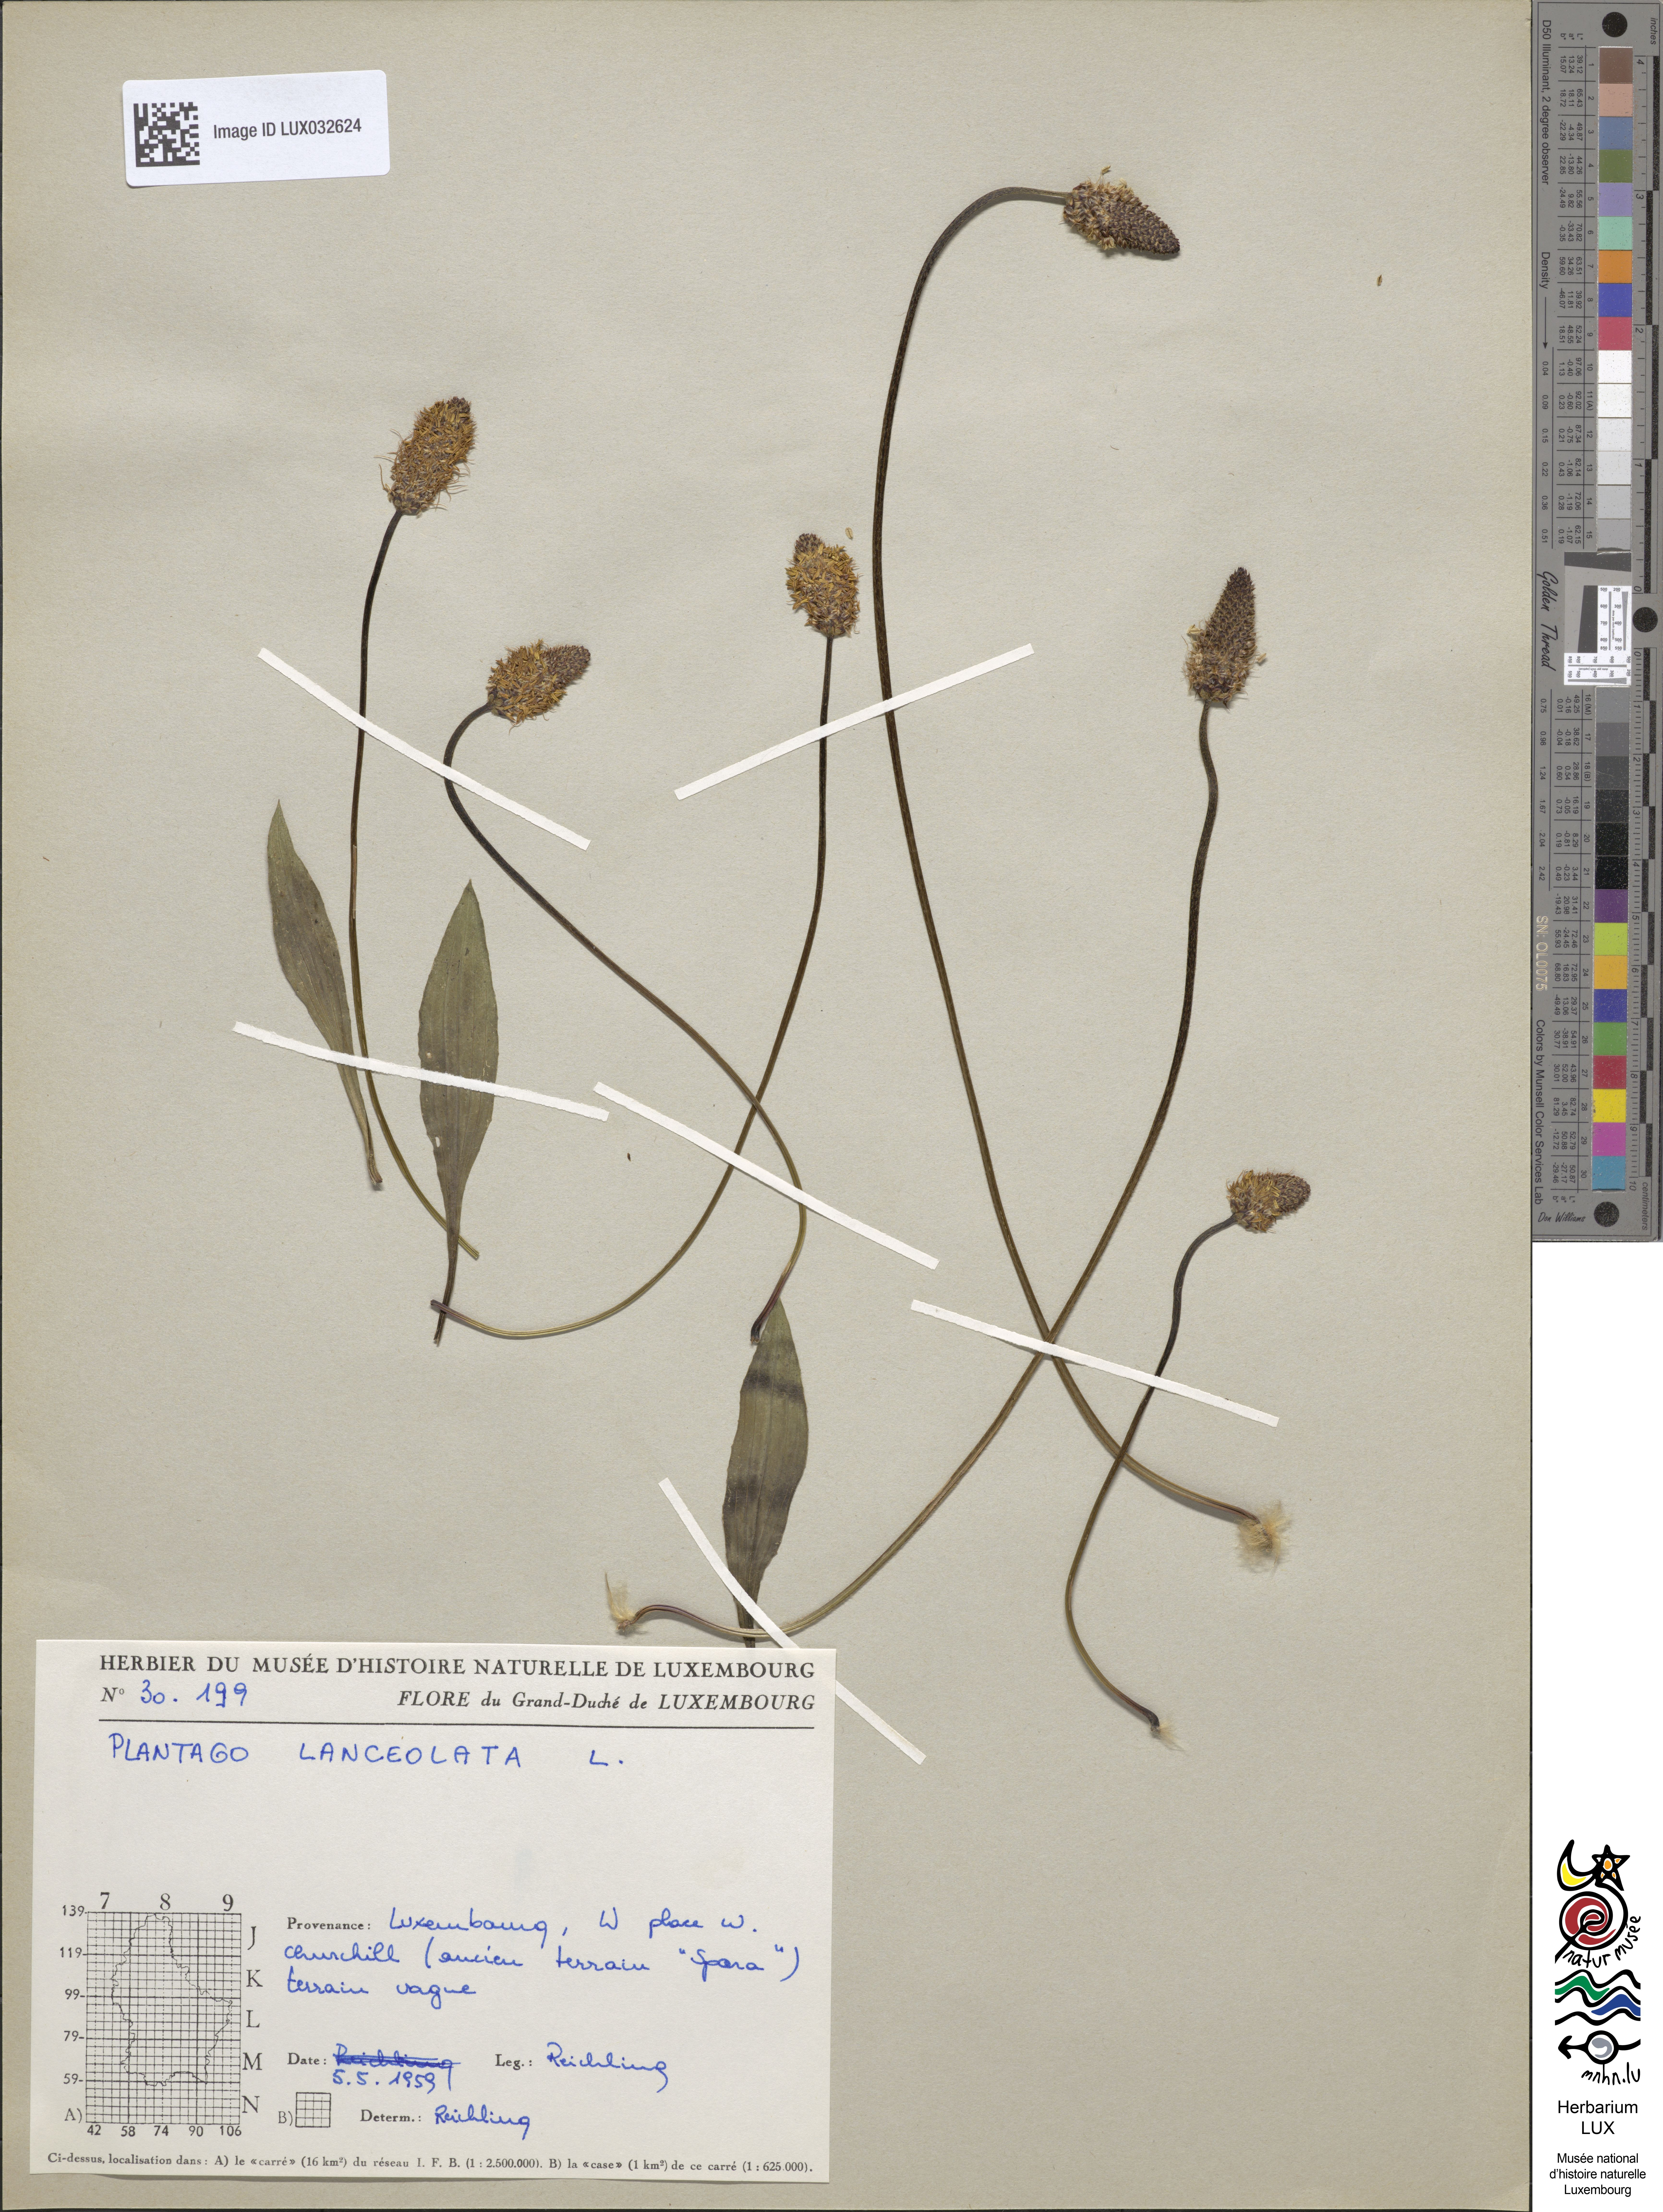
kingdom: Plantae
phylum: Tracheophyta
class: Magnoliopsida
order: Lamiales
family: Plantaginaceae
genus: Plantago
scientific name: Plantago lanceolata
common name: Ribwort plantain
